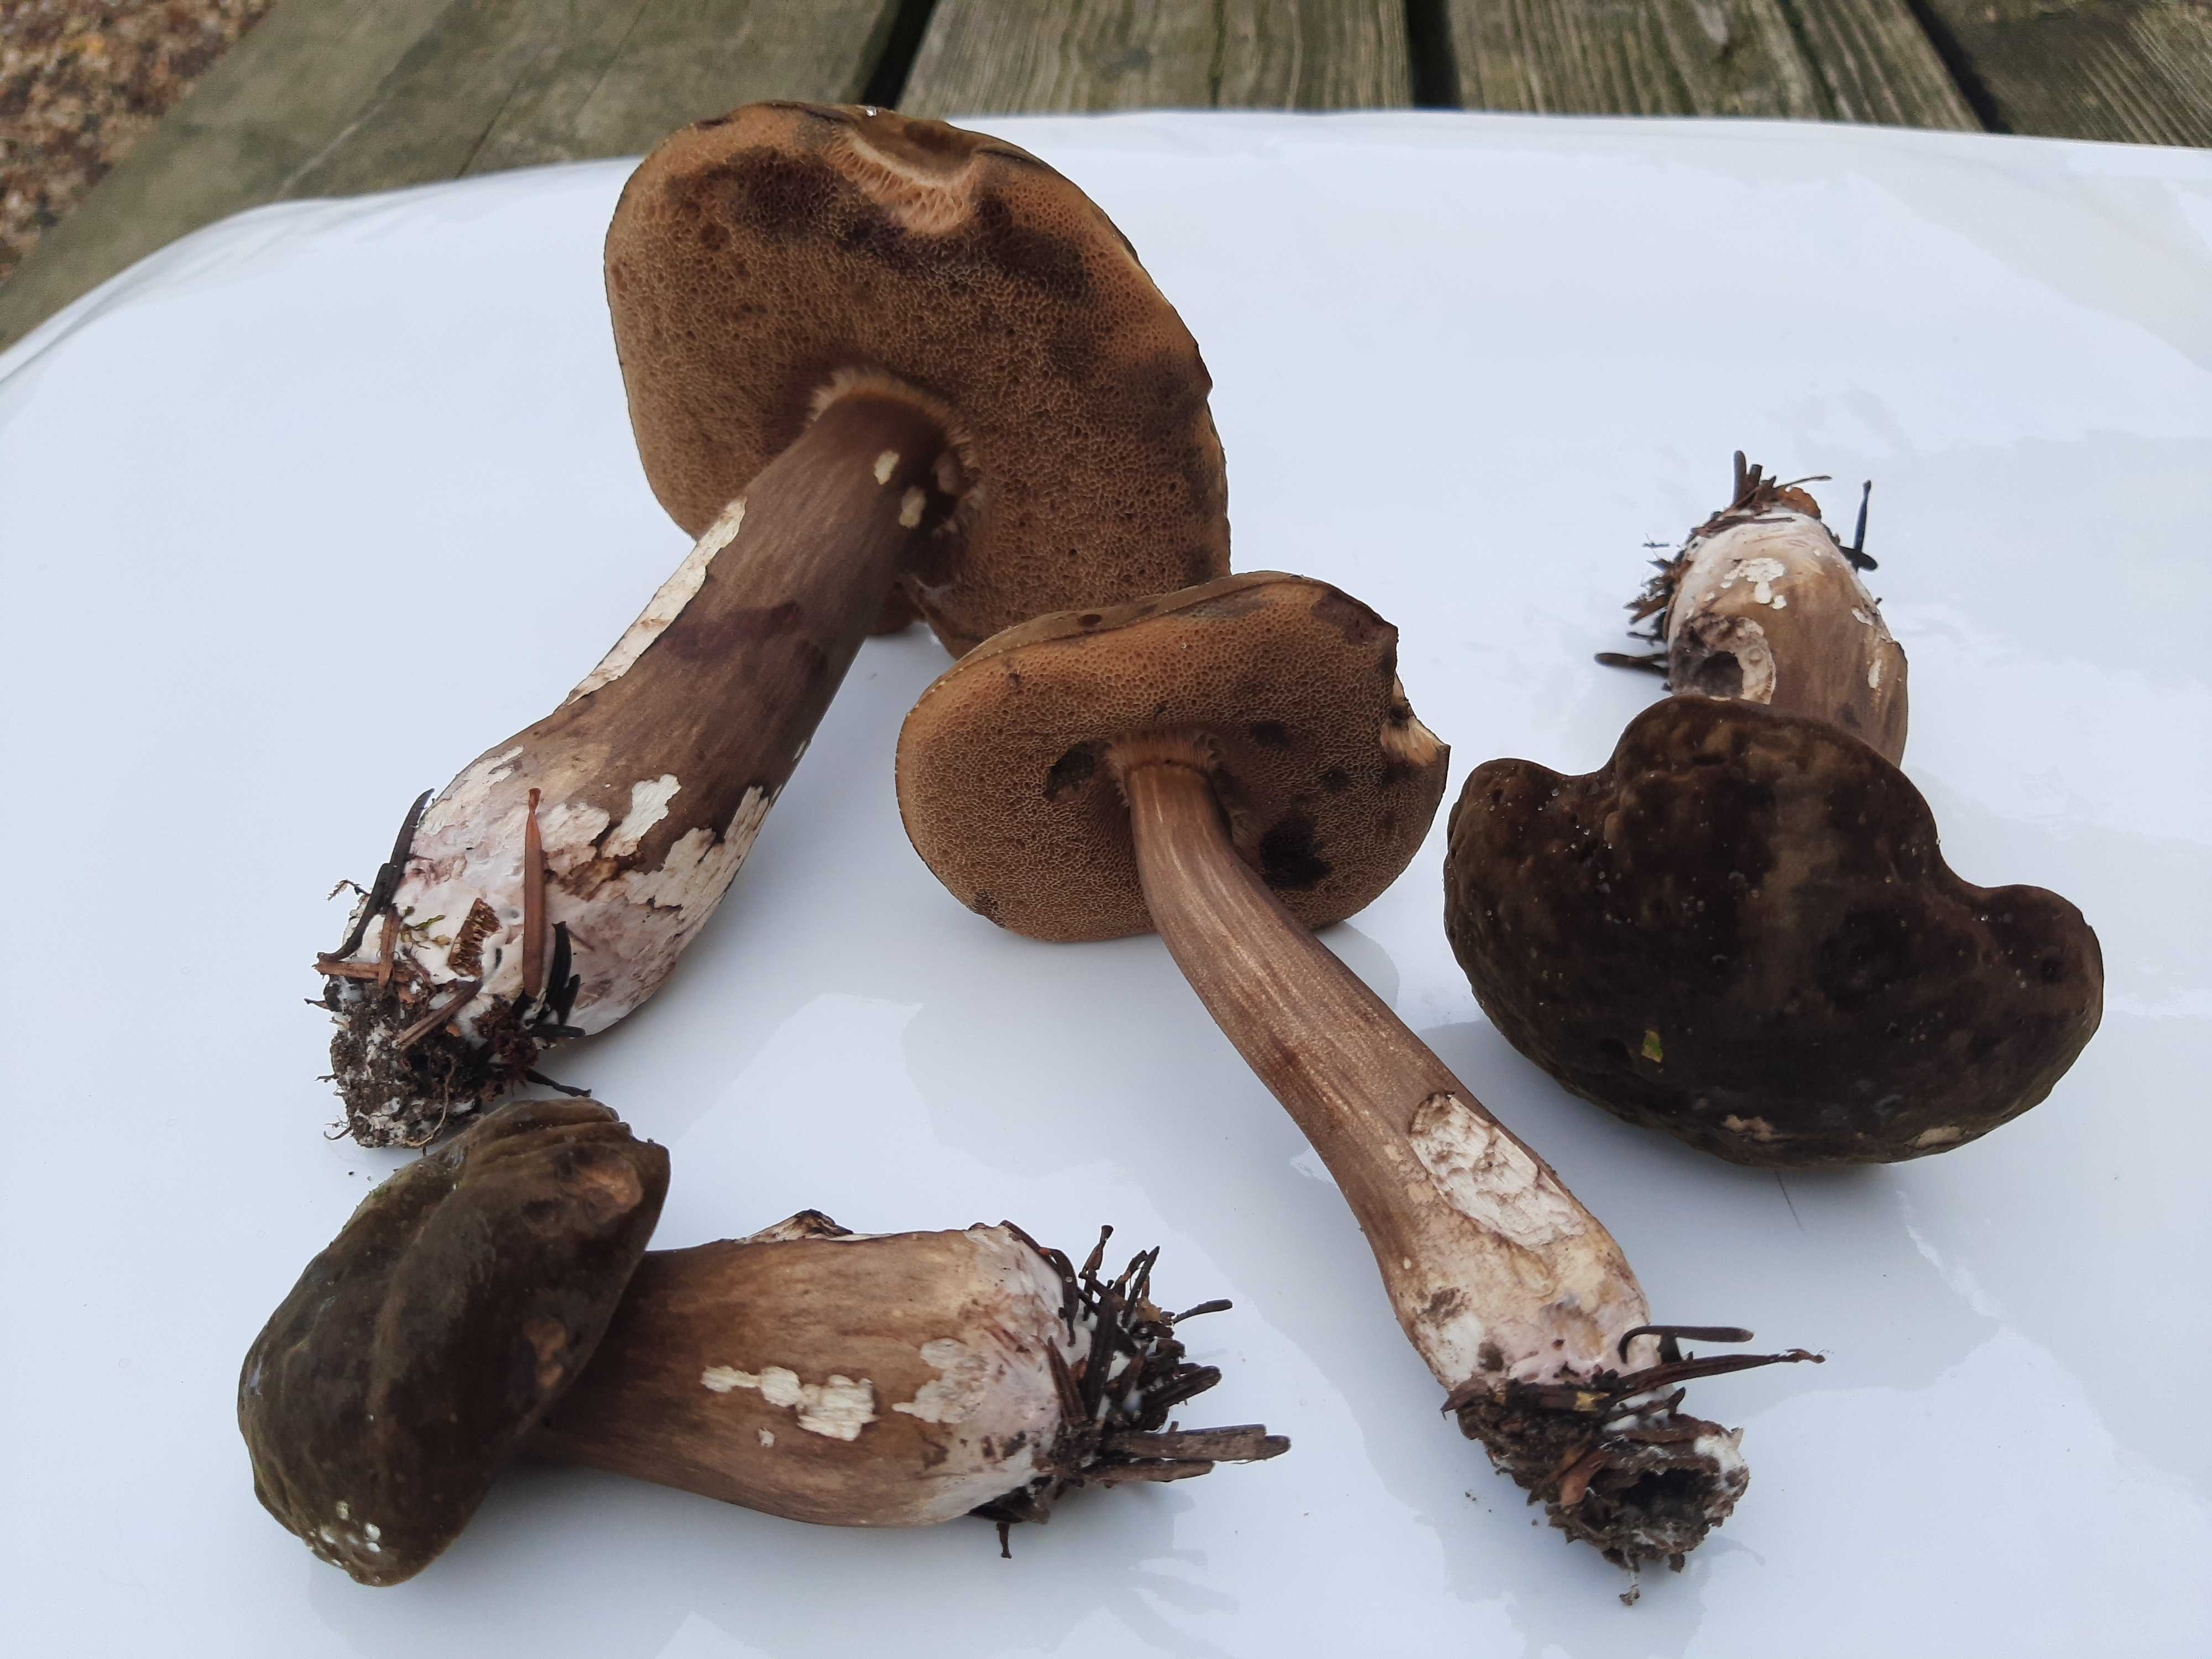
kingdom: Fungi
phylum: Basidiomycota
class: Agaricomycetes
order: Boletales
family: Boletaceae
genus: Porphyrellus
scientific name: Porphyrellus porphyrosporus
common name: sodrørhat
